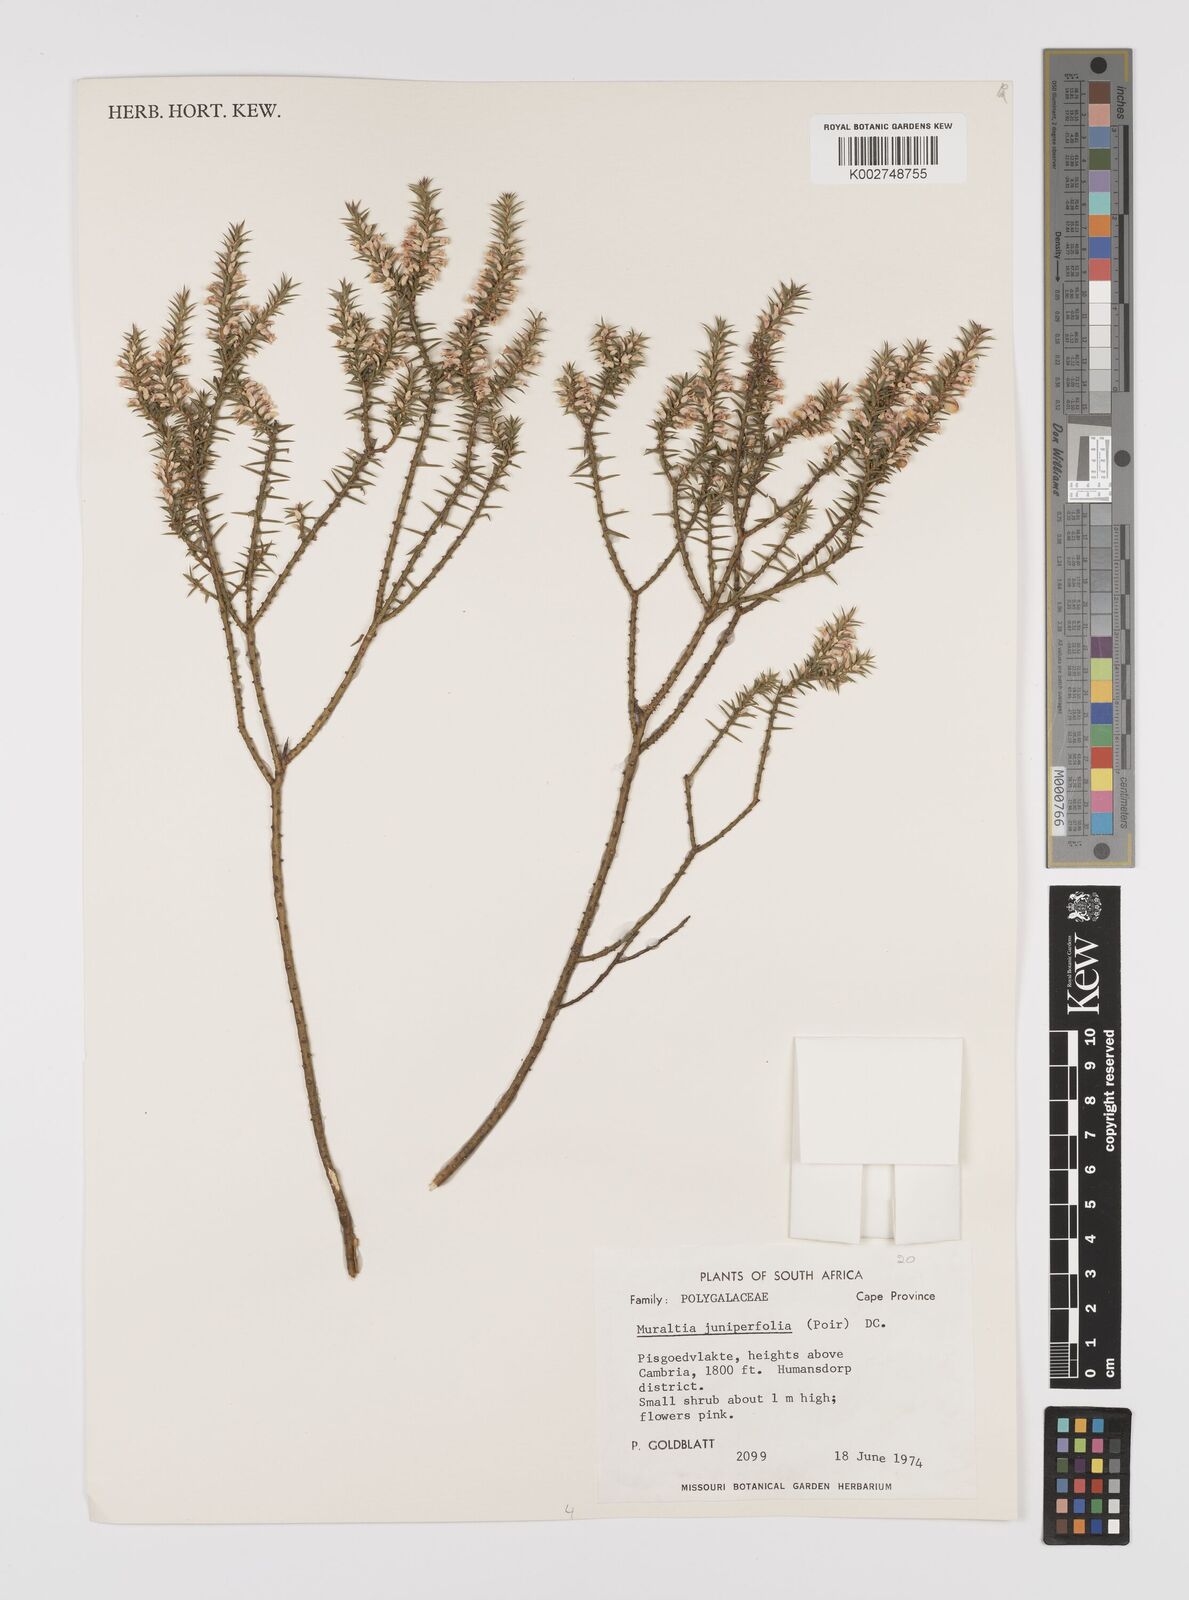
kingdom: Plantae
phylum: Tracheophyta
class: Magnoliopsida
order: Fabales
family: Polygalaceae
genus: Muraltia
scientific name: Muraltia juniperifolia
